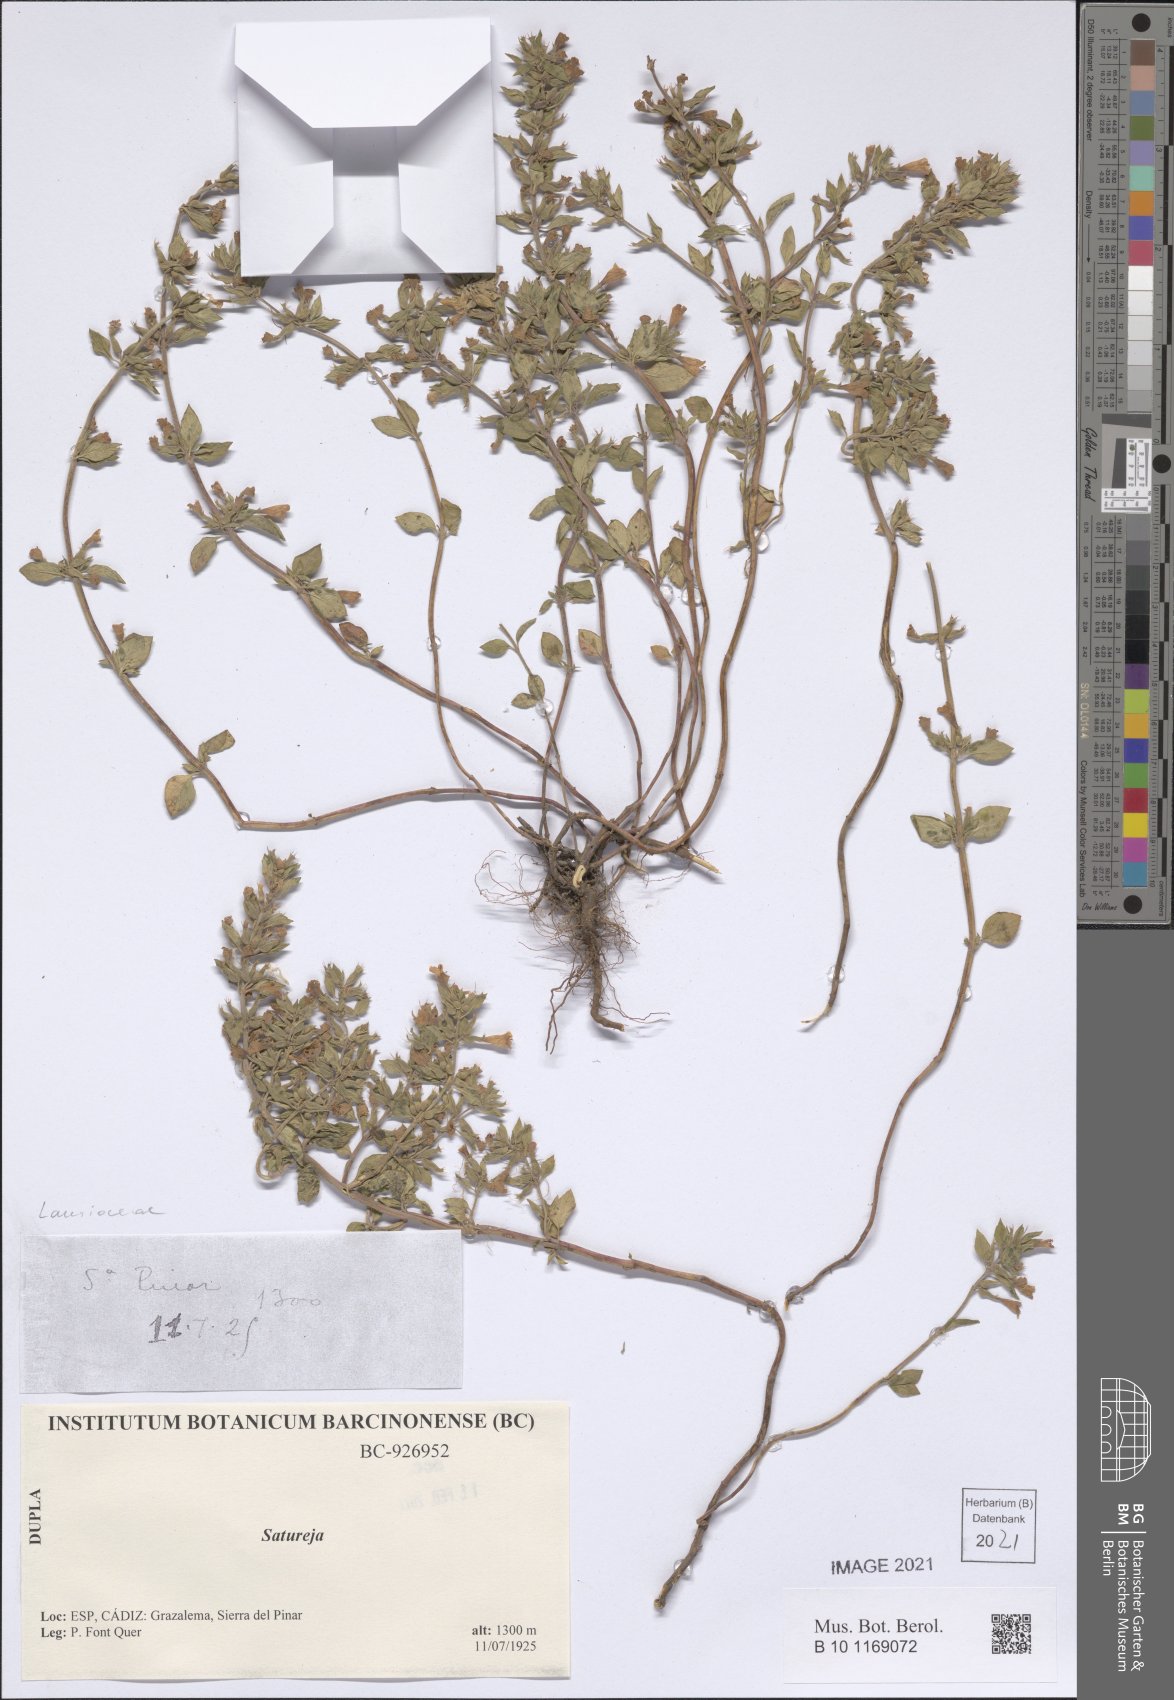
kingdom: Plantae
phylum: Tracheophyta
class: Magnoliopsida
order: Lamiales
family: Lamiaceae
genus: Satureja
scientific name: Satureja
